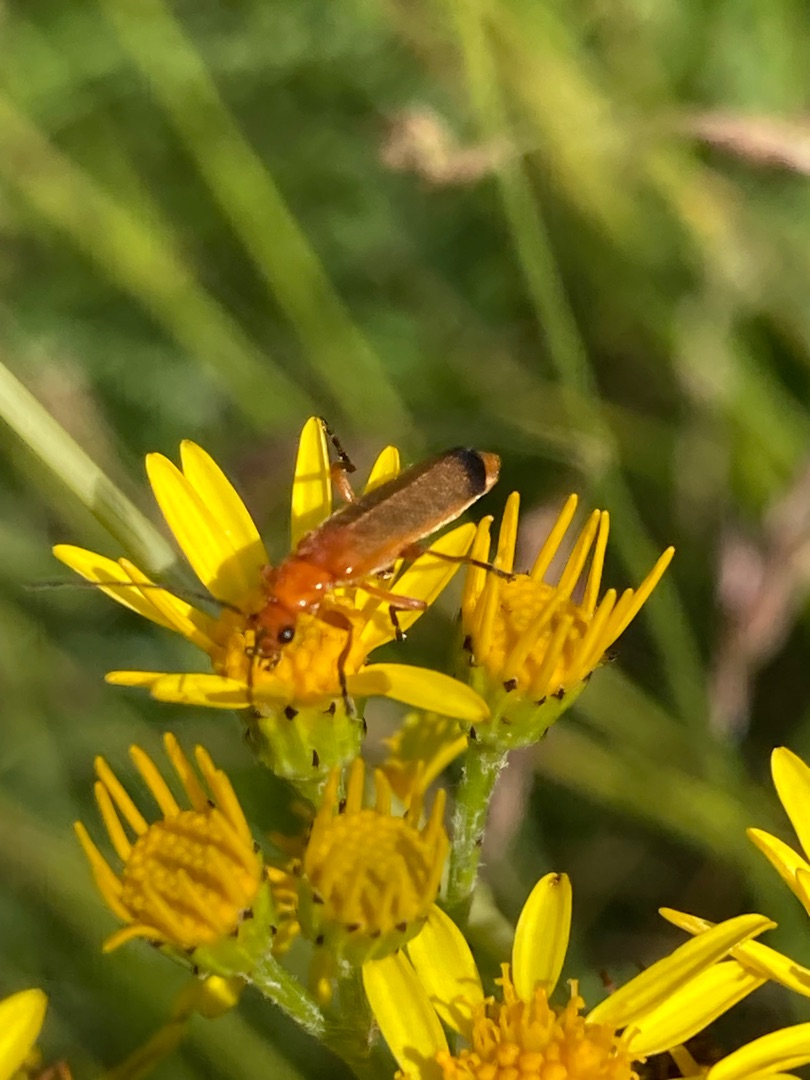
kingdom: Animalia
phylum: Arthropoda
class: Insecta
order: Coleoptera
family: Cantharidae
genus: Rhagonycha
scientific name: Rhagonycha fulva
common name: Præstebille
